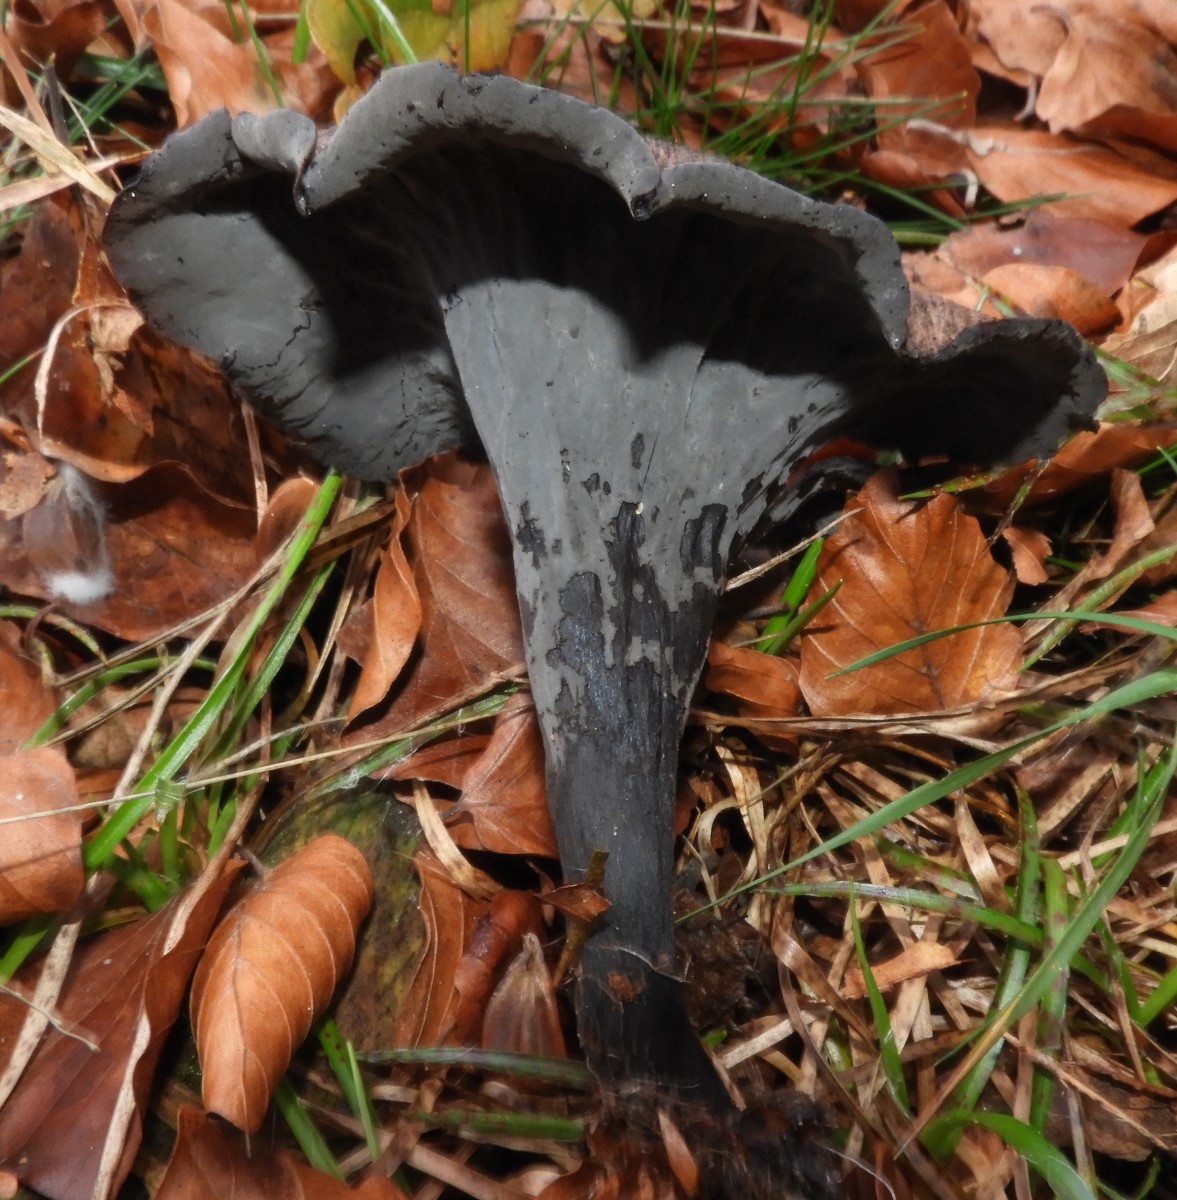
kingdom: Fungi
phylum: Basidiomycota
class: Agaricomycetes
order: Cantharellales
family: Hydnaceae
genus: Craterellus
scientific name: Craterellus cornucopioides
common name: trompetsvamp
